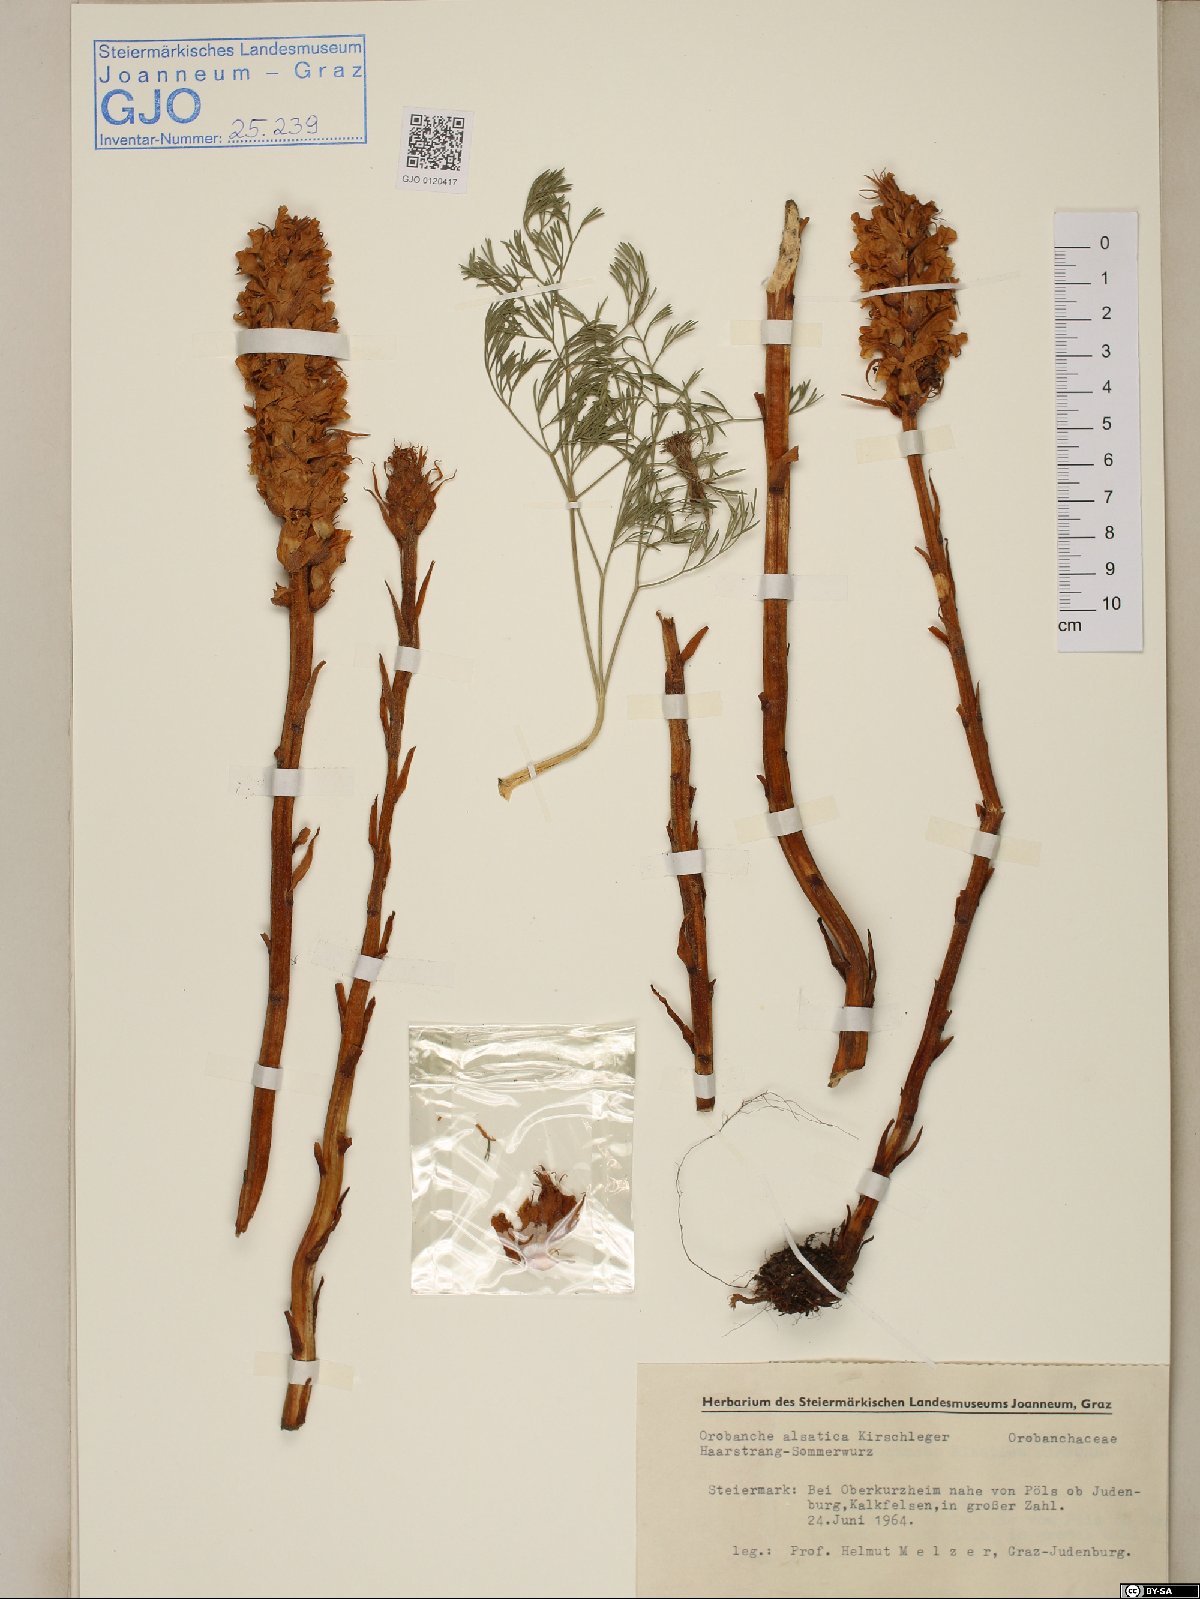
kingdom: Plantae
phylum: Tracheophyta
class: Magnoliopsida
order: Lamiales
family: Orobanchaceae
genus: Orobanche
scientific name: Orobanche alsatica
